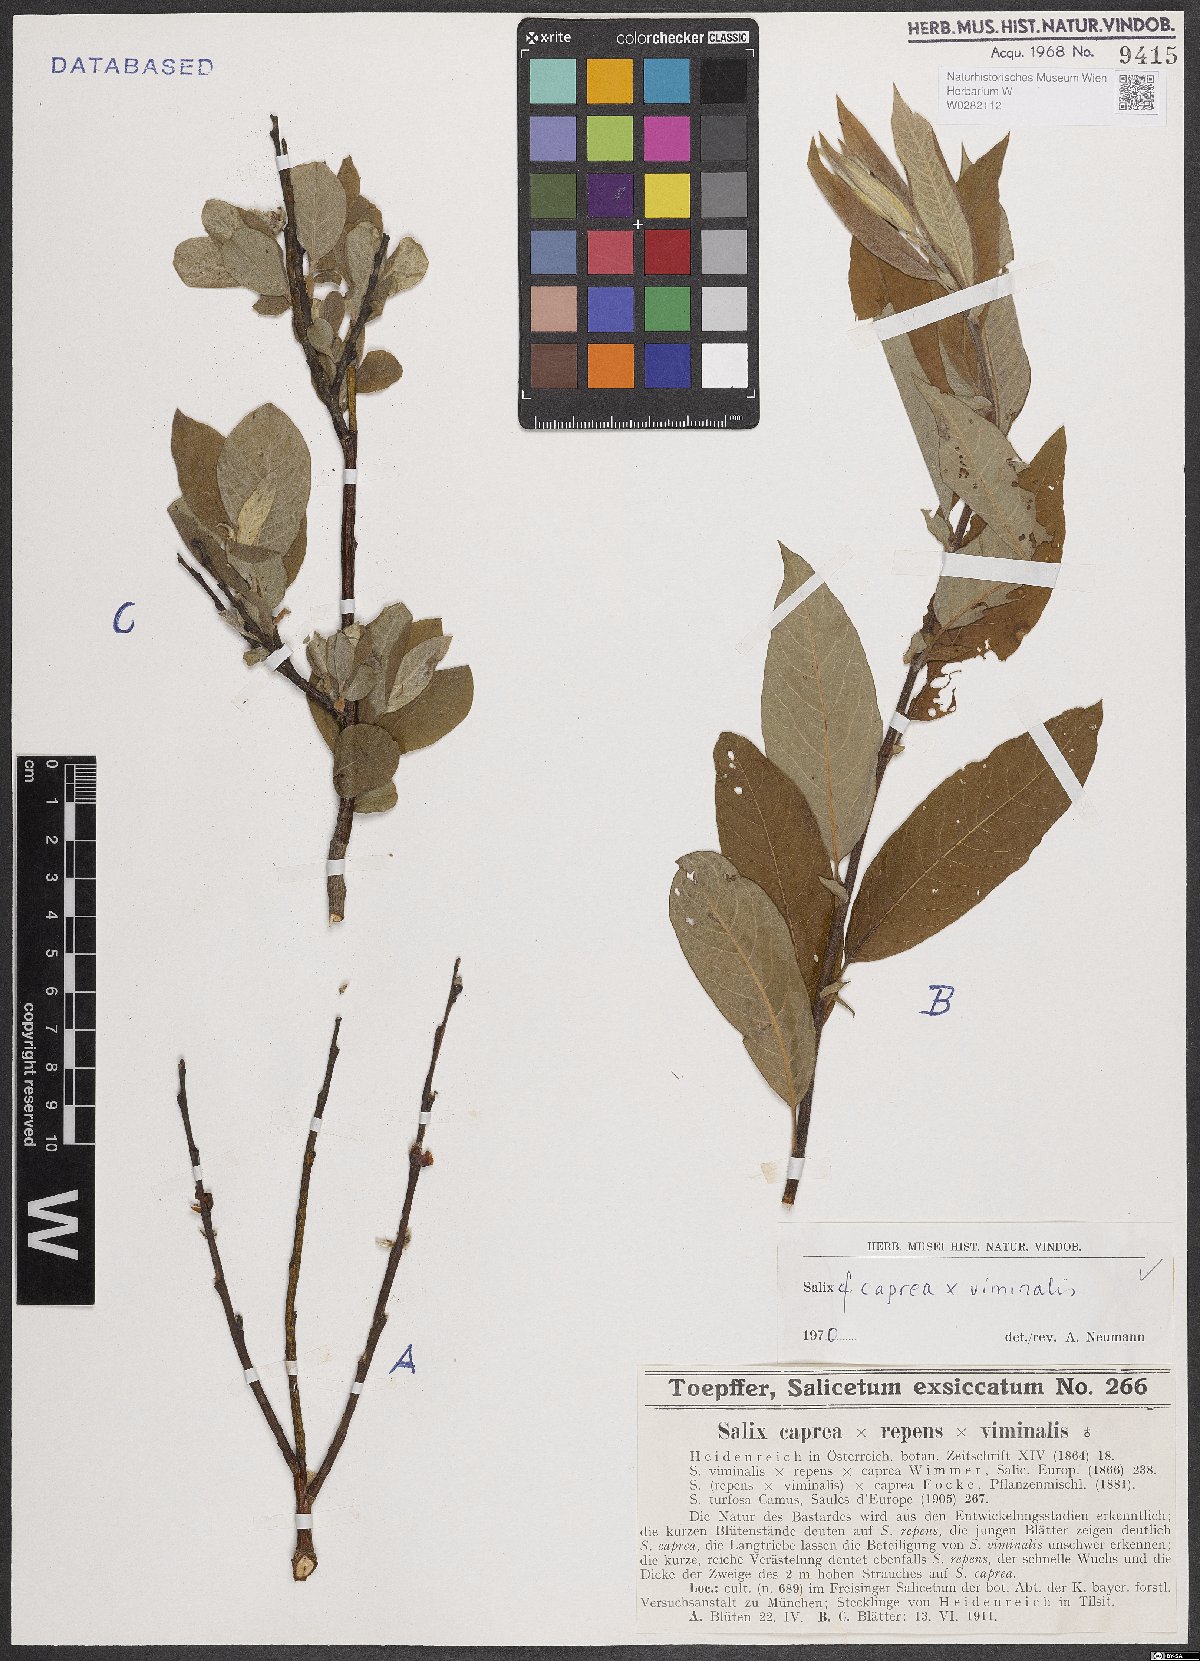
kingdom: Plantae
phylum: Tracheophyta
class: Magnoliopsida
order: Malpighiales
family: Salicaceae
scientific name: Salicaceae
